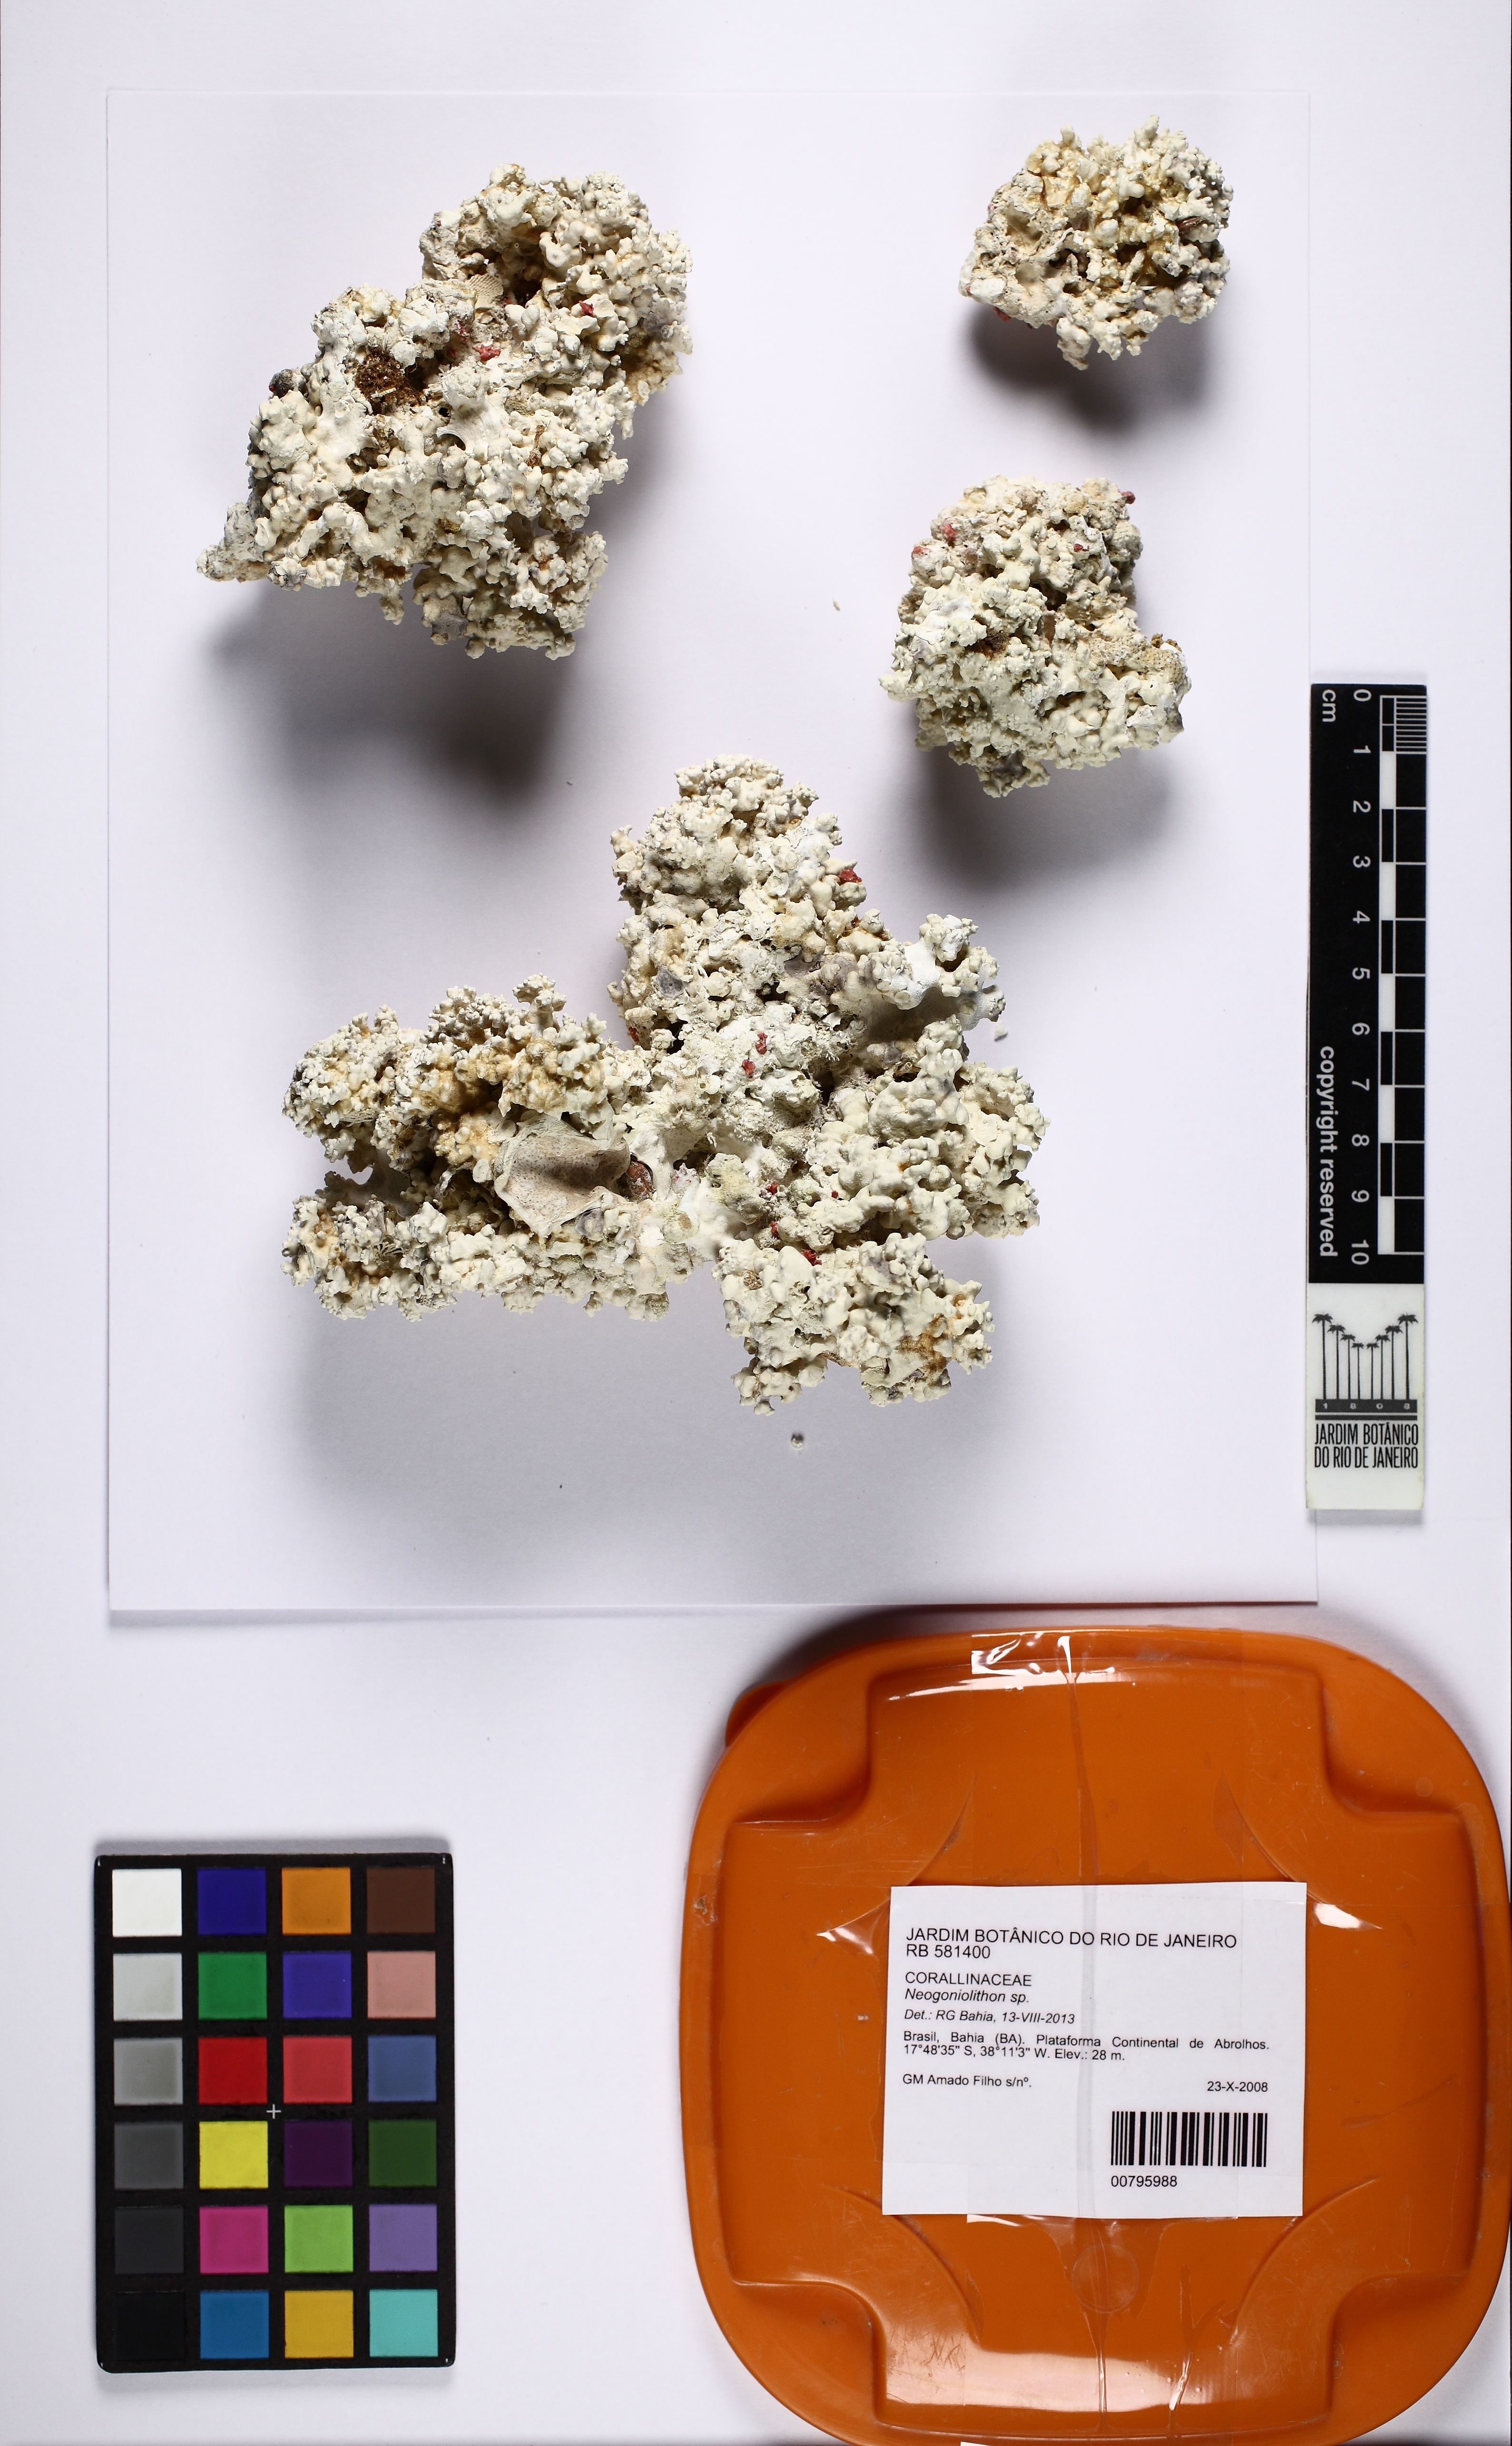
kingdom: Plantae
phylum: Rhodophyta
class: Florideophyceae
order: Corallinales
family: Spongitaceae
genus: Neogoniolithon
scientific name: Neogoniolithon
